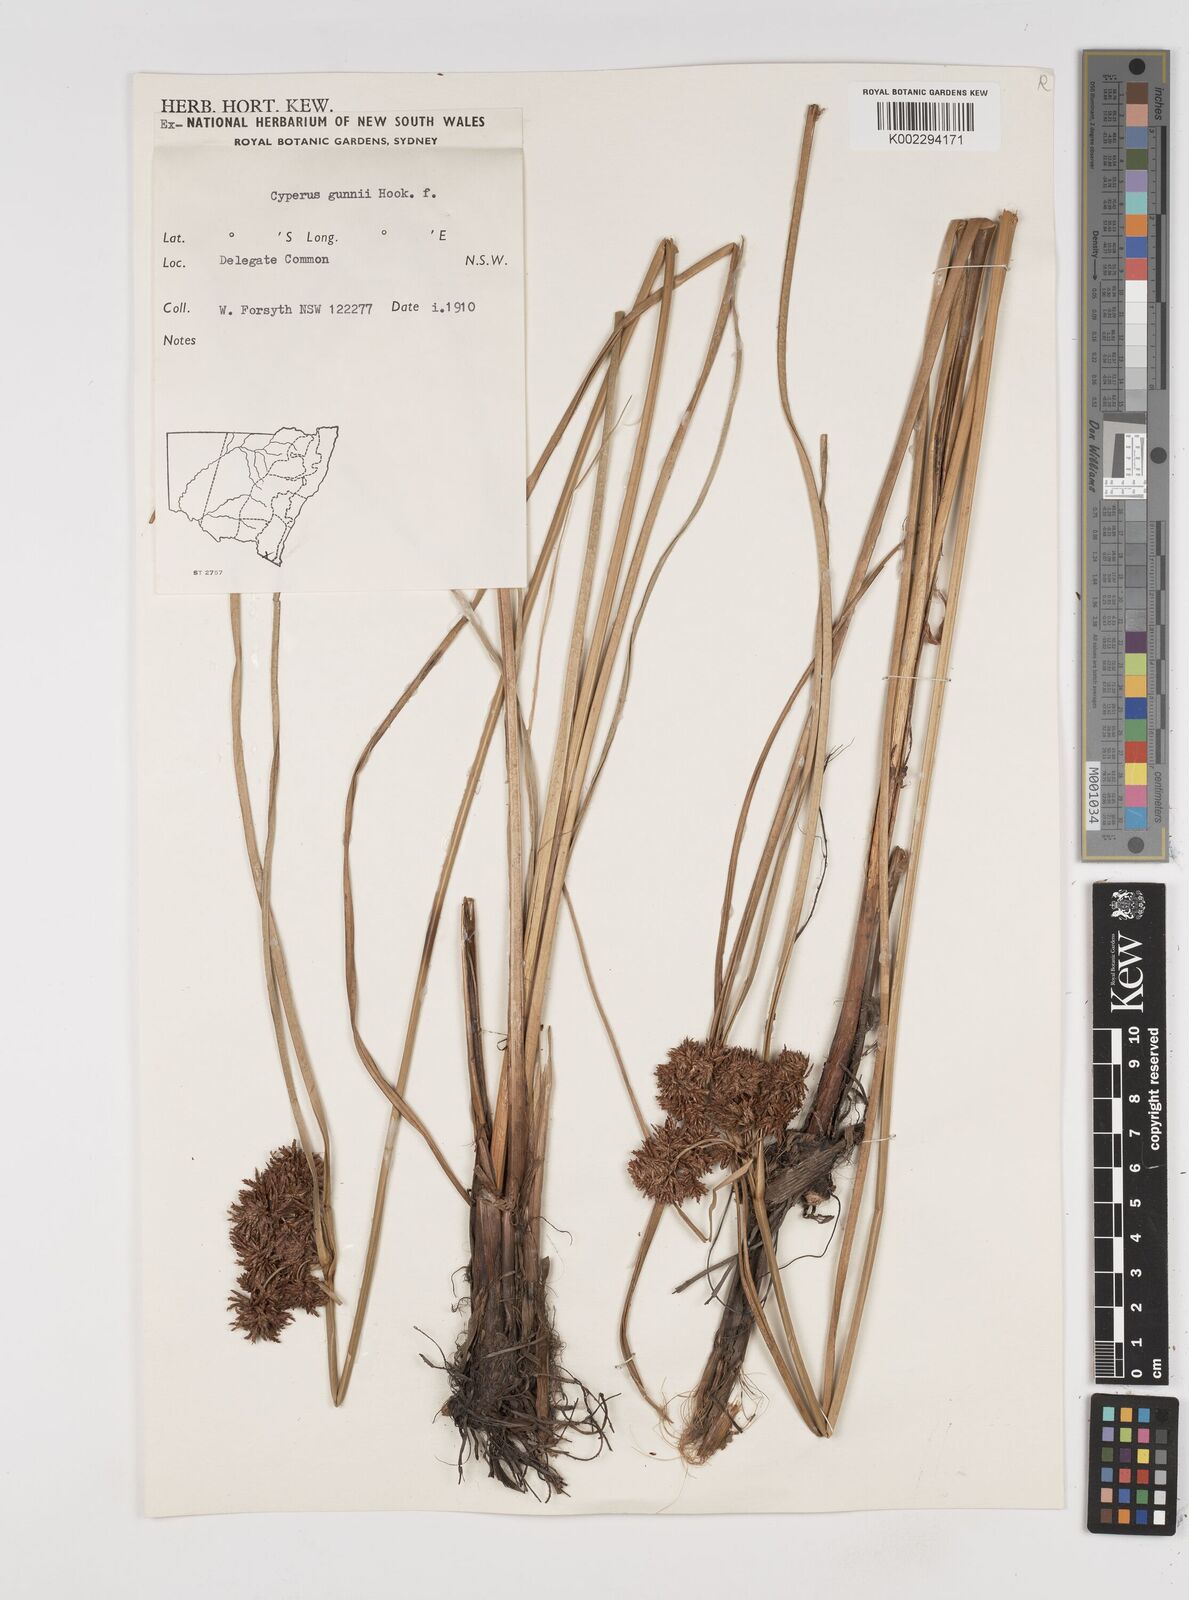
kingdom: Plantae
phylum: Tracheophyta
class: Liliopsida
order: Poales
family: Cyperaceae
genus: Cyperus
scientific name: Cyperus gunnii
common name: Flecked flat-sedge
